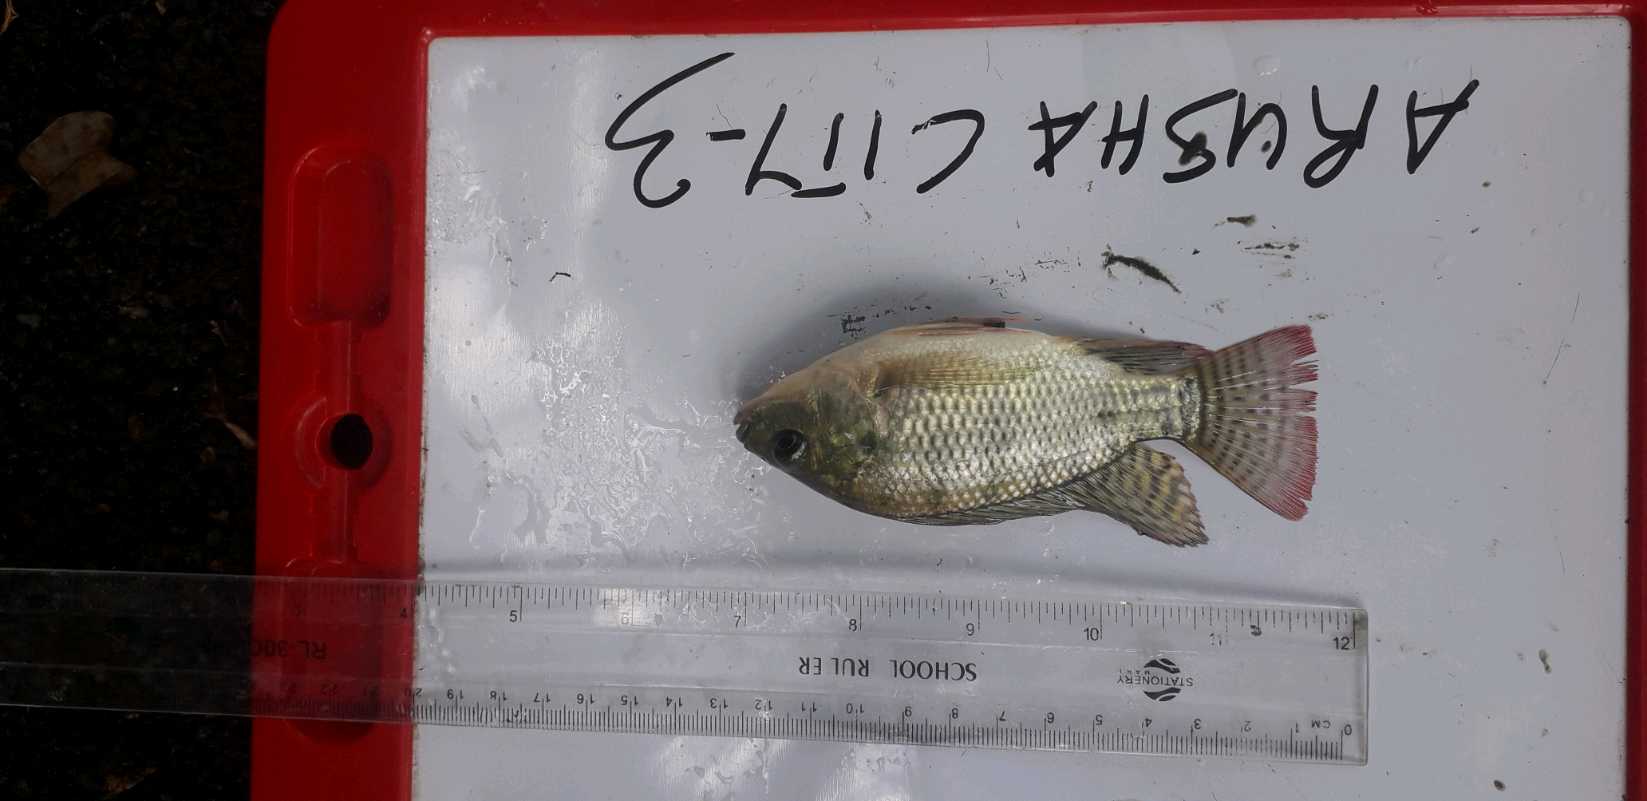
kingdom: Animalia
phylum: Chordata
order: Perciformes
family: Cichlidae
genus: Oreochromis
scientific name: Oreochromis niloticus
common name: Nile tilapia
